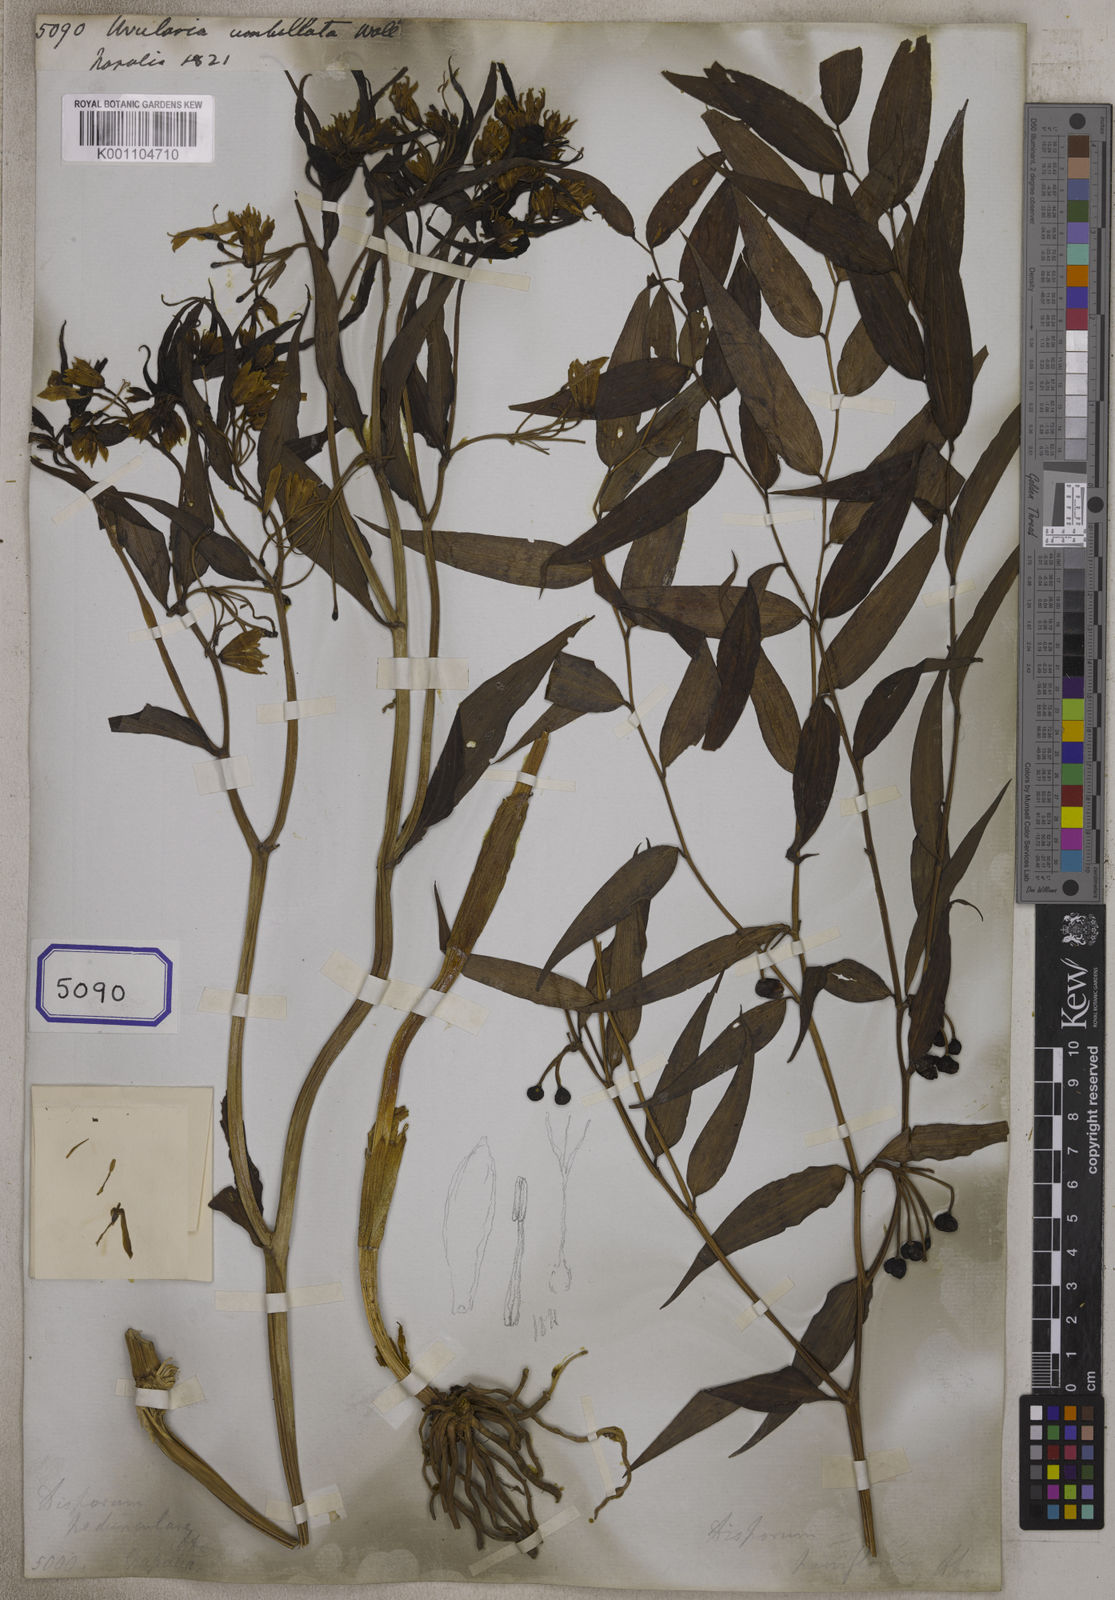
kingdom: Plantae
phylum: Tracheophyta
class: Liliopsida
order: Liliales
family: Colchicaceae
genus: Disporum
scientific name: Disporum cantoniense
